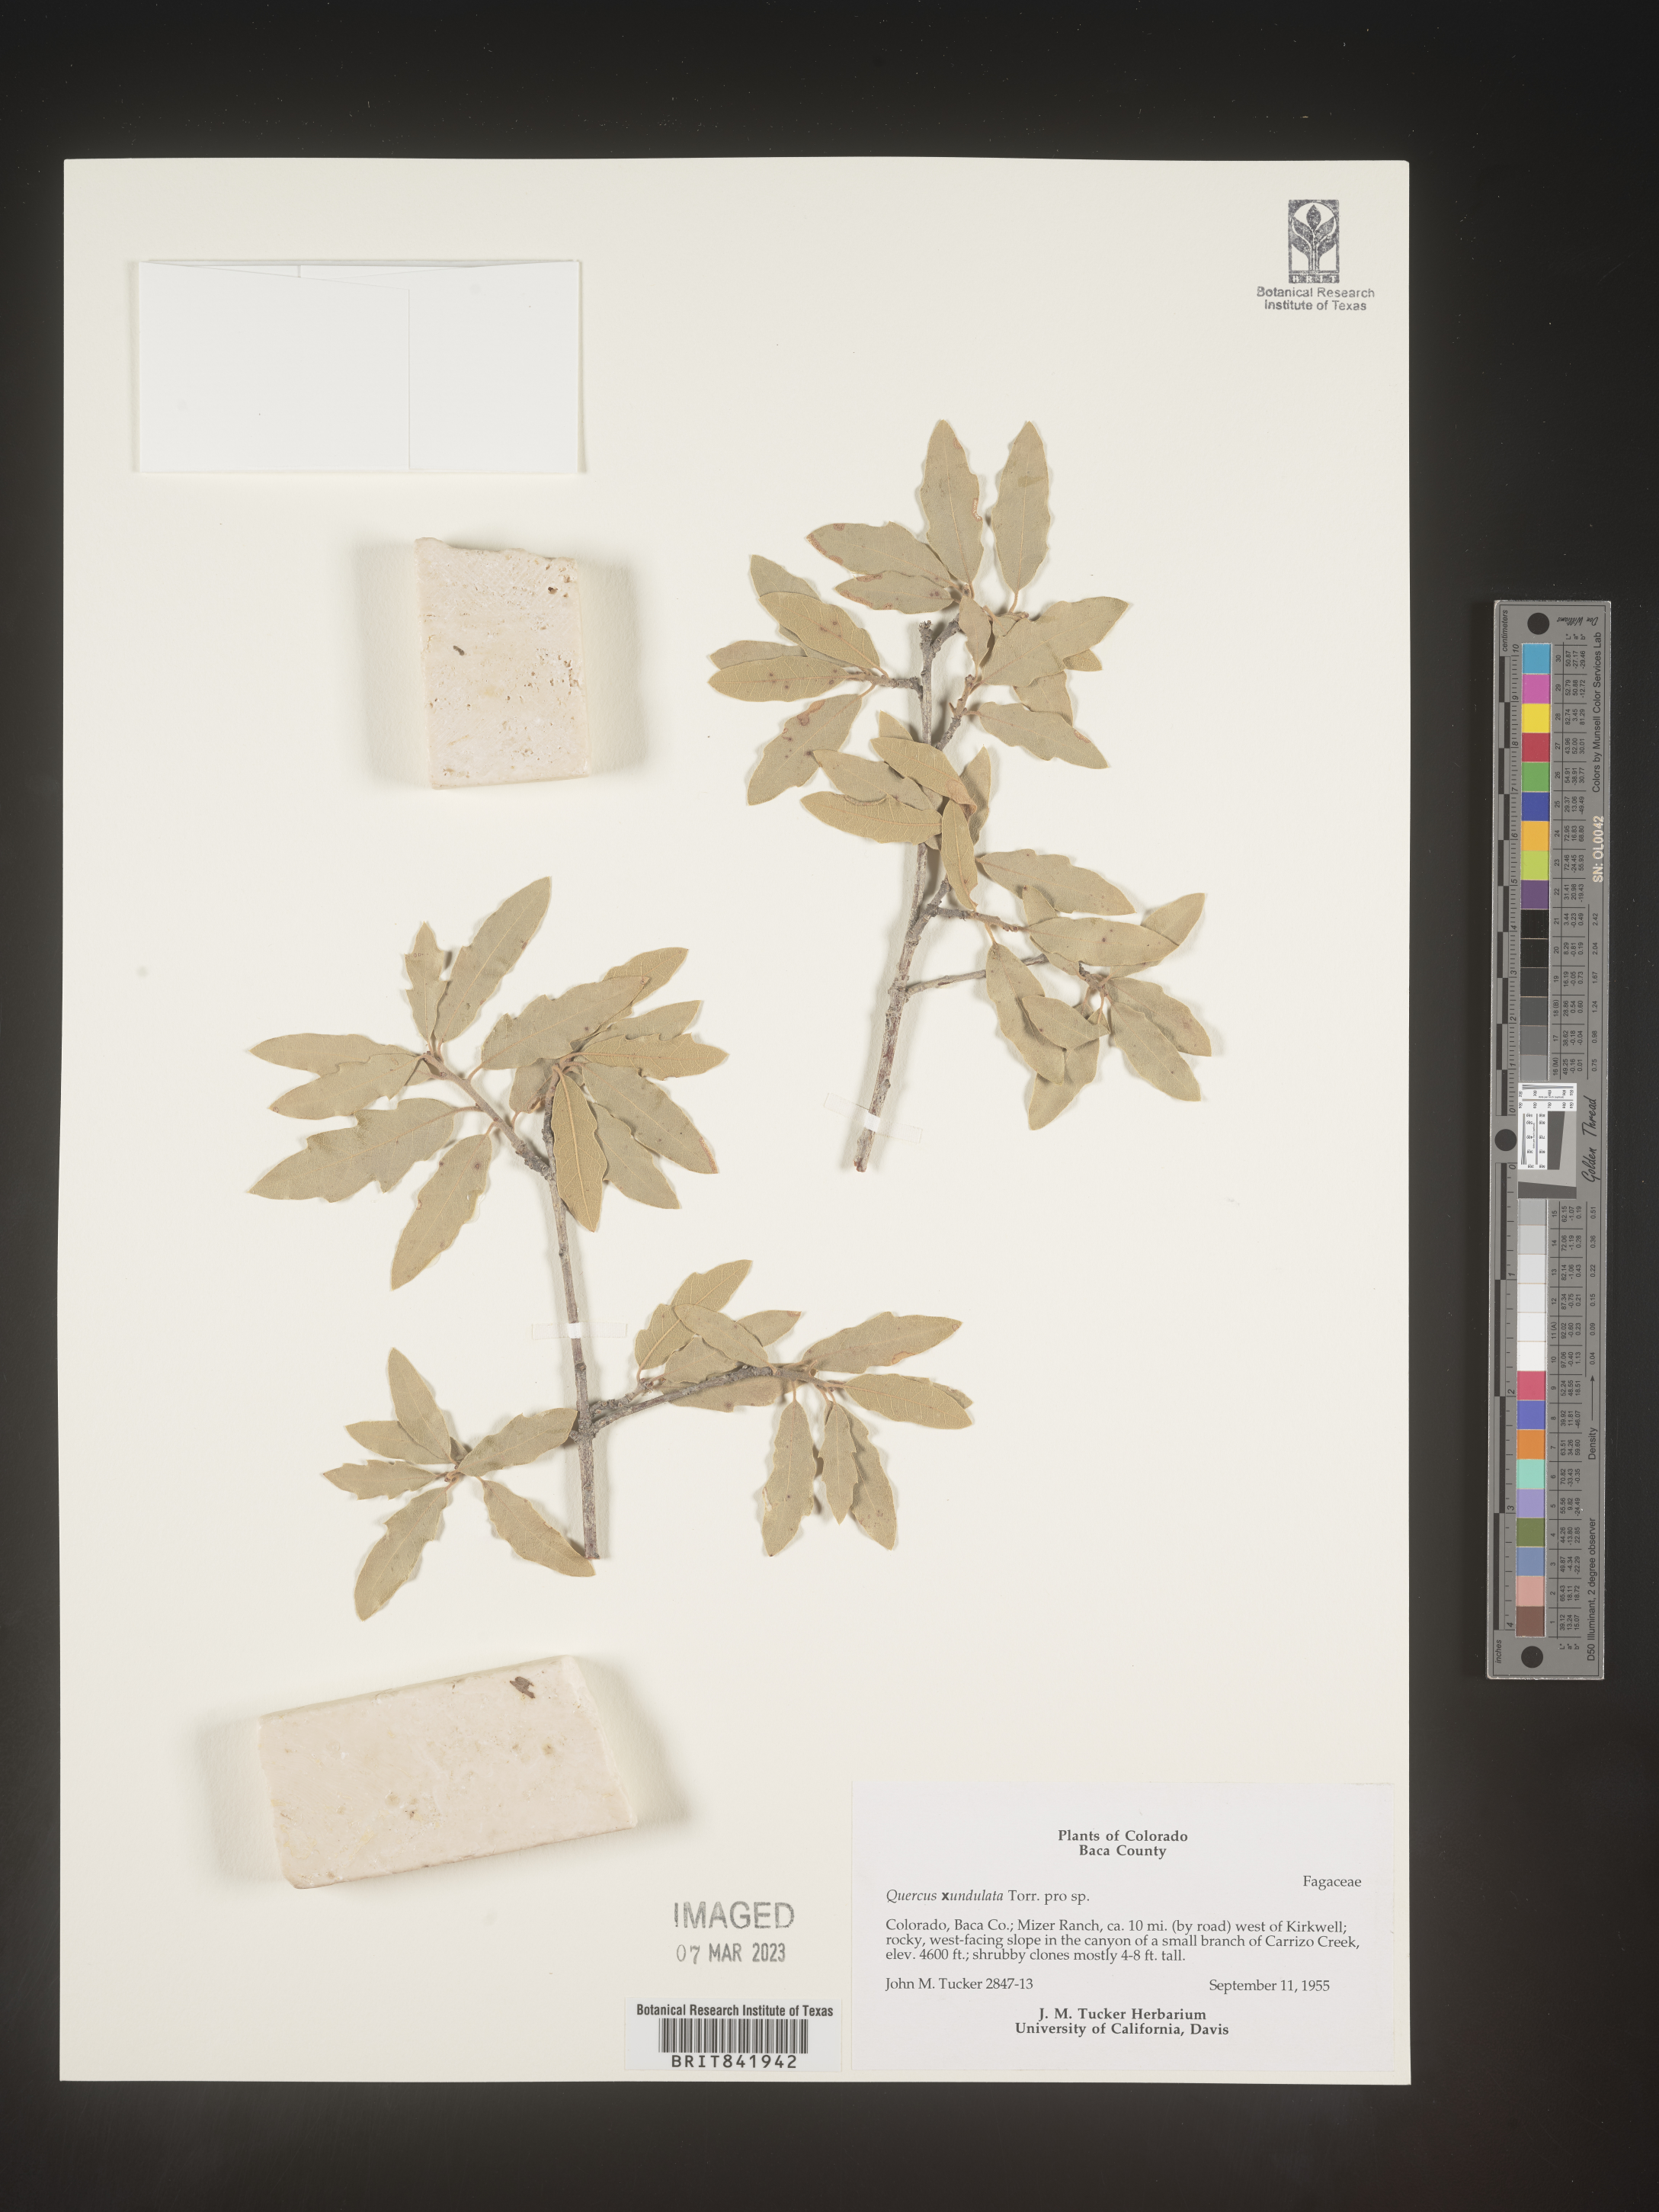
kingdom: Plantae
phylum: Tracheophyta
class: Magnoliopsida
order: Fagales
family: Fagaceae
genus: Quercus
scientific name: Quercus undulata
